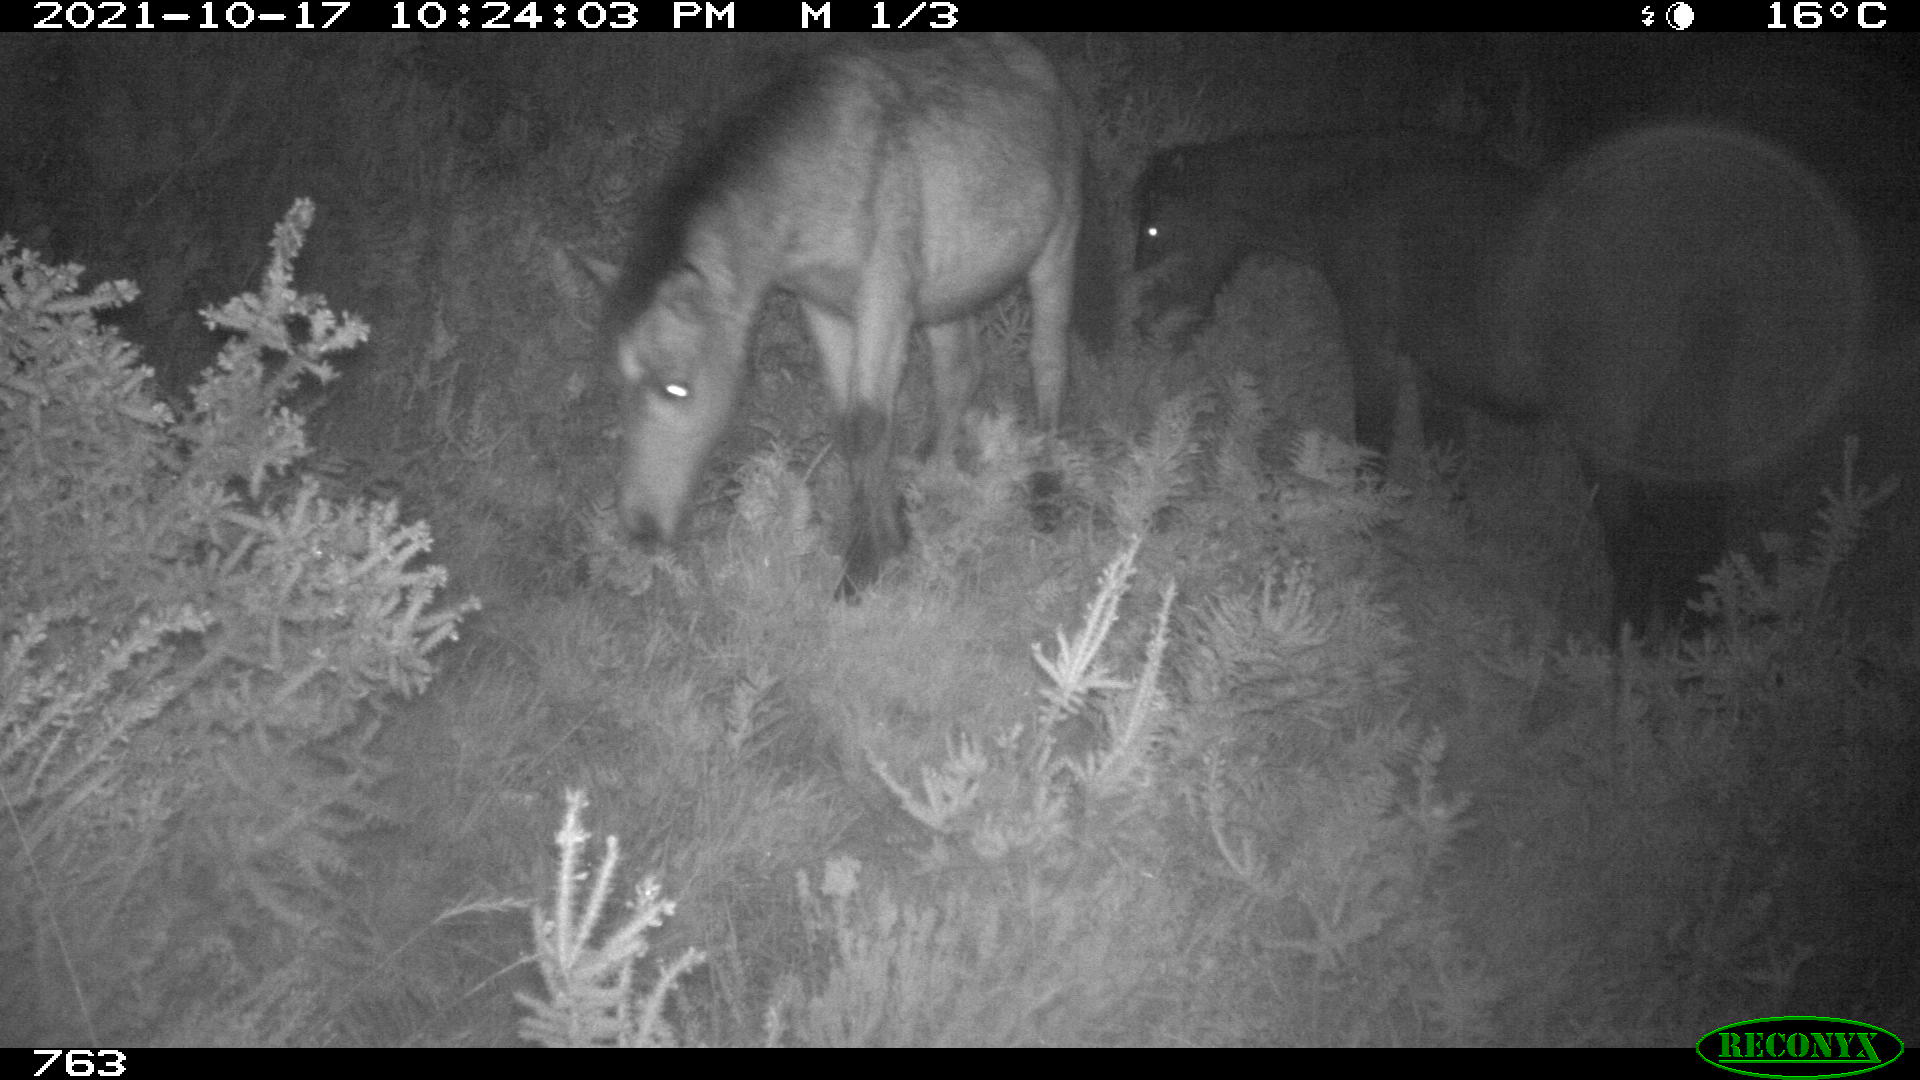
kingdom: Animalia
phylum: Chordata
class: Mammalia
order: Perissodactyla
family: Equidae
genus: Equus
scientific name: Equus caballus
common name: Horse
